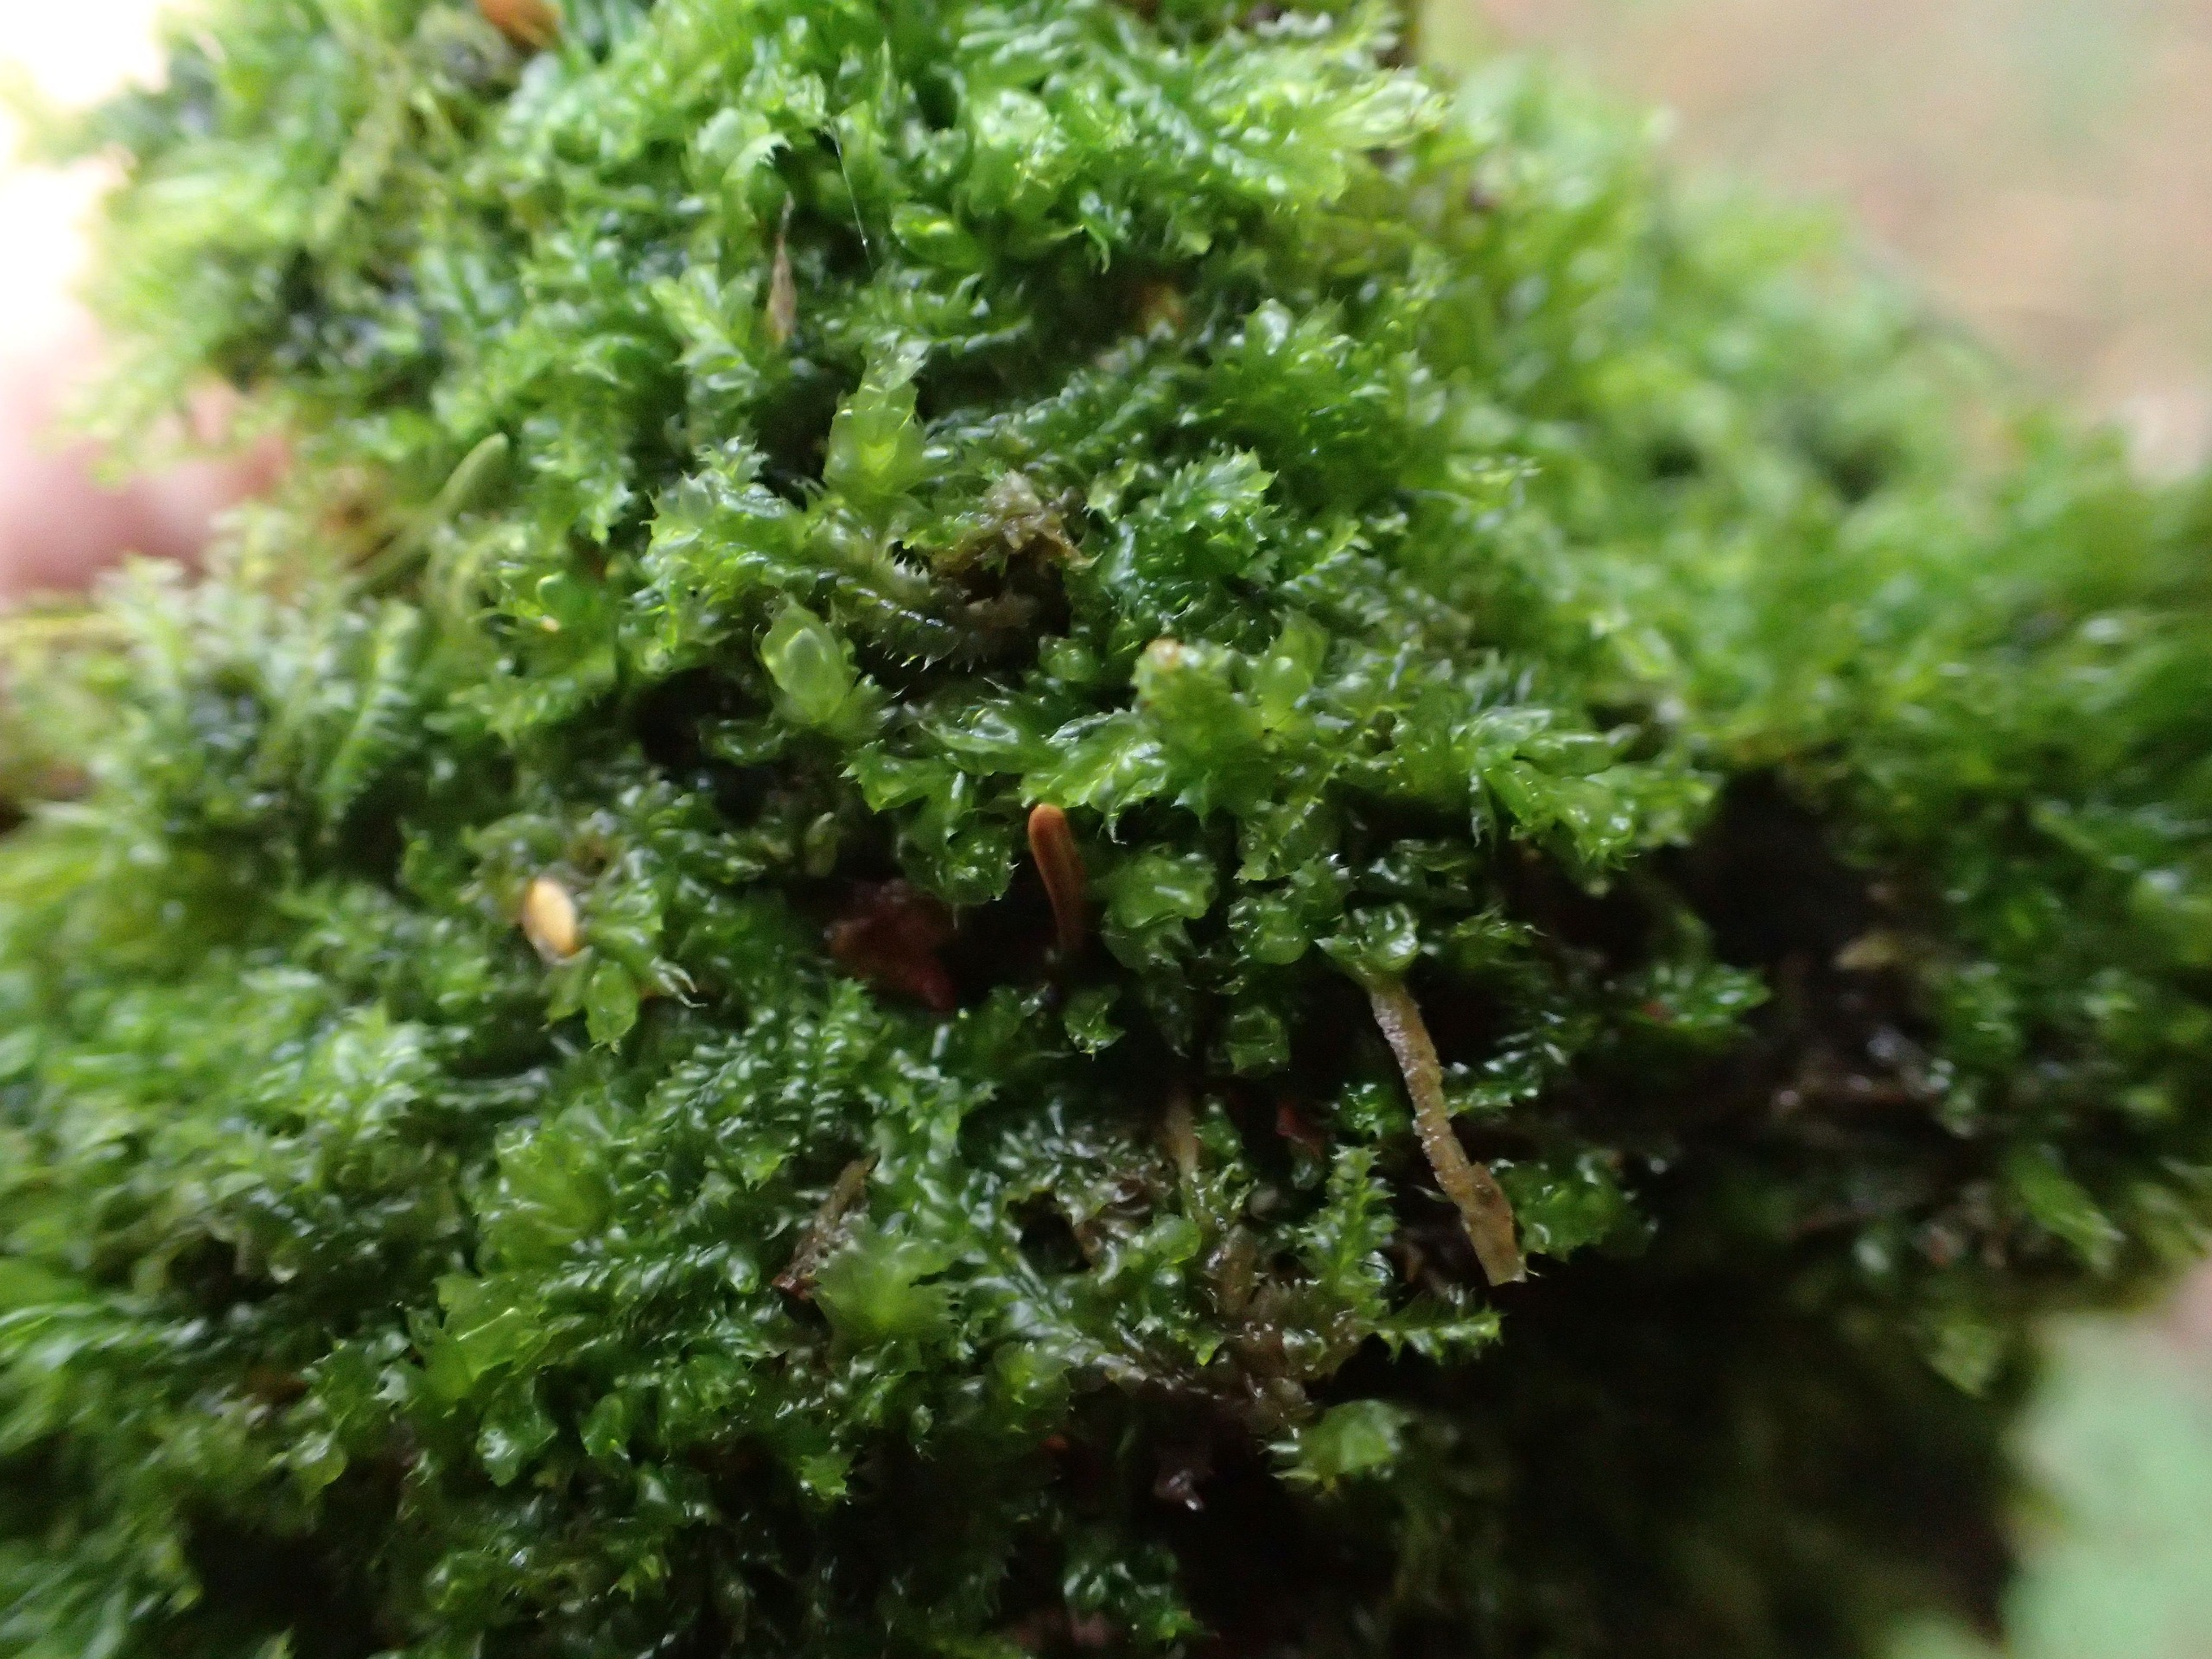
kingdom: Plantae
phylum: Marchantiophyta
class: Jungermanniopsida
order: Jungermanniales
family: Lophocoleaceae
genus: Lophocolea
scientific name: Lophocolea heterophylla
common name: Forskelligbladet kamsvøb
